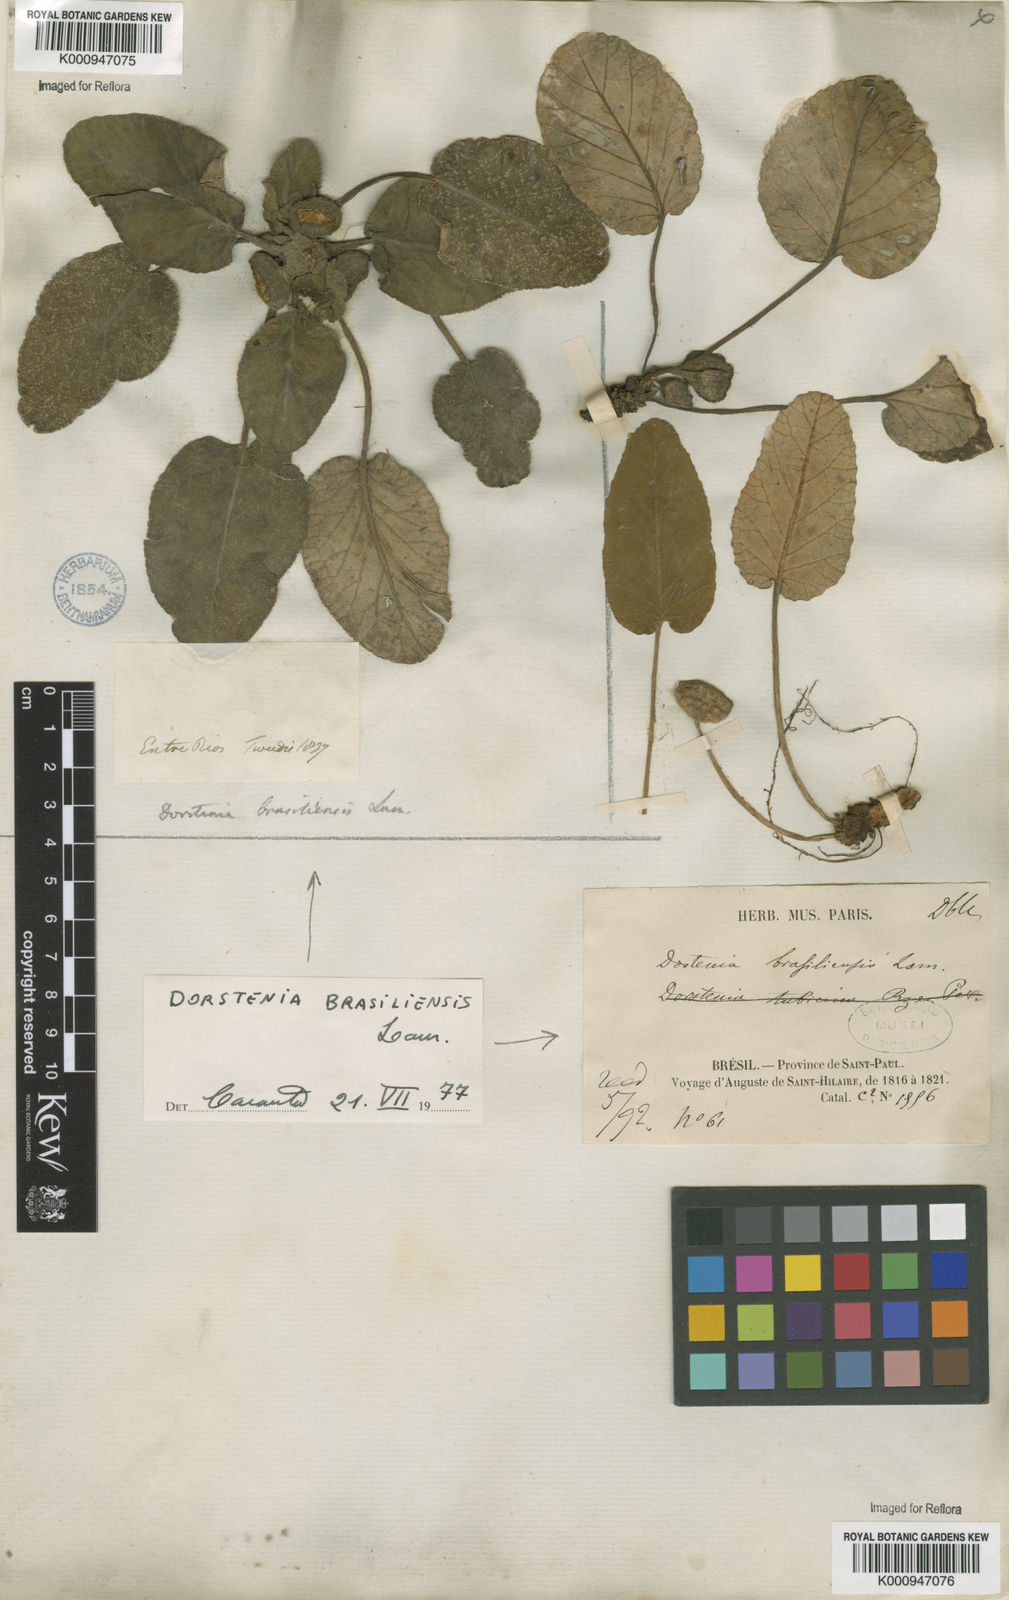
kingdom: Plantae
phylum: Tracheophyta
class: Magnoliopsida
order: Rosales
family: Moraceae
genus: Dorstenia
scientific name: Dorstenia brasiliensis
